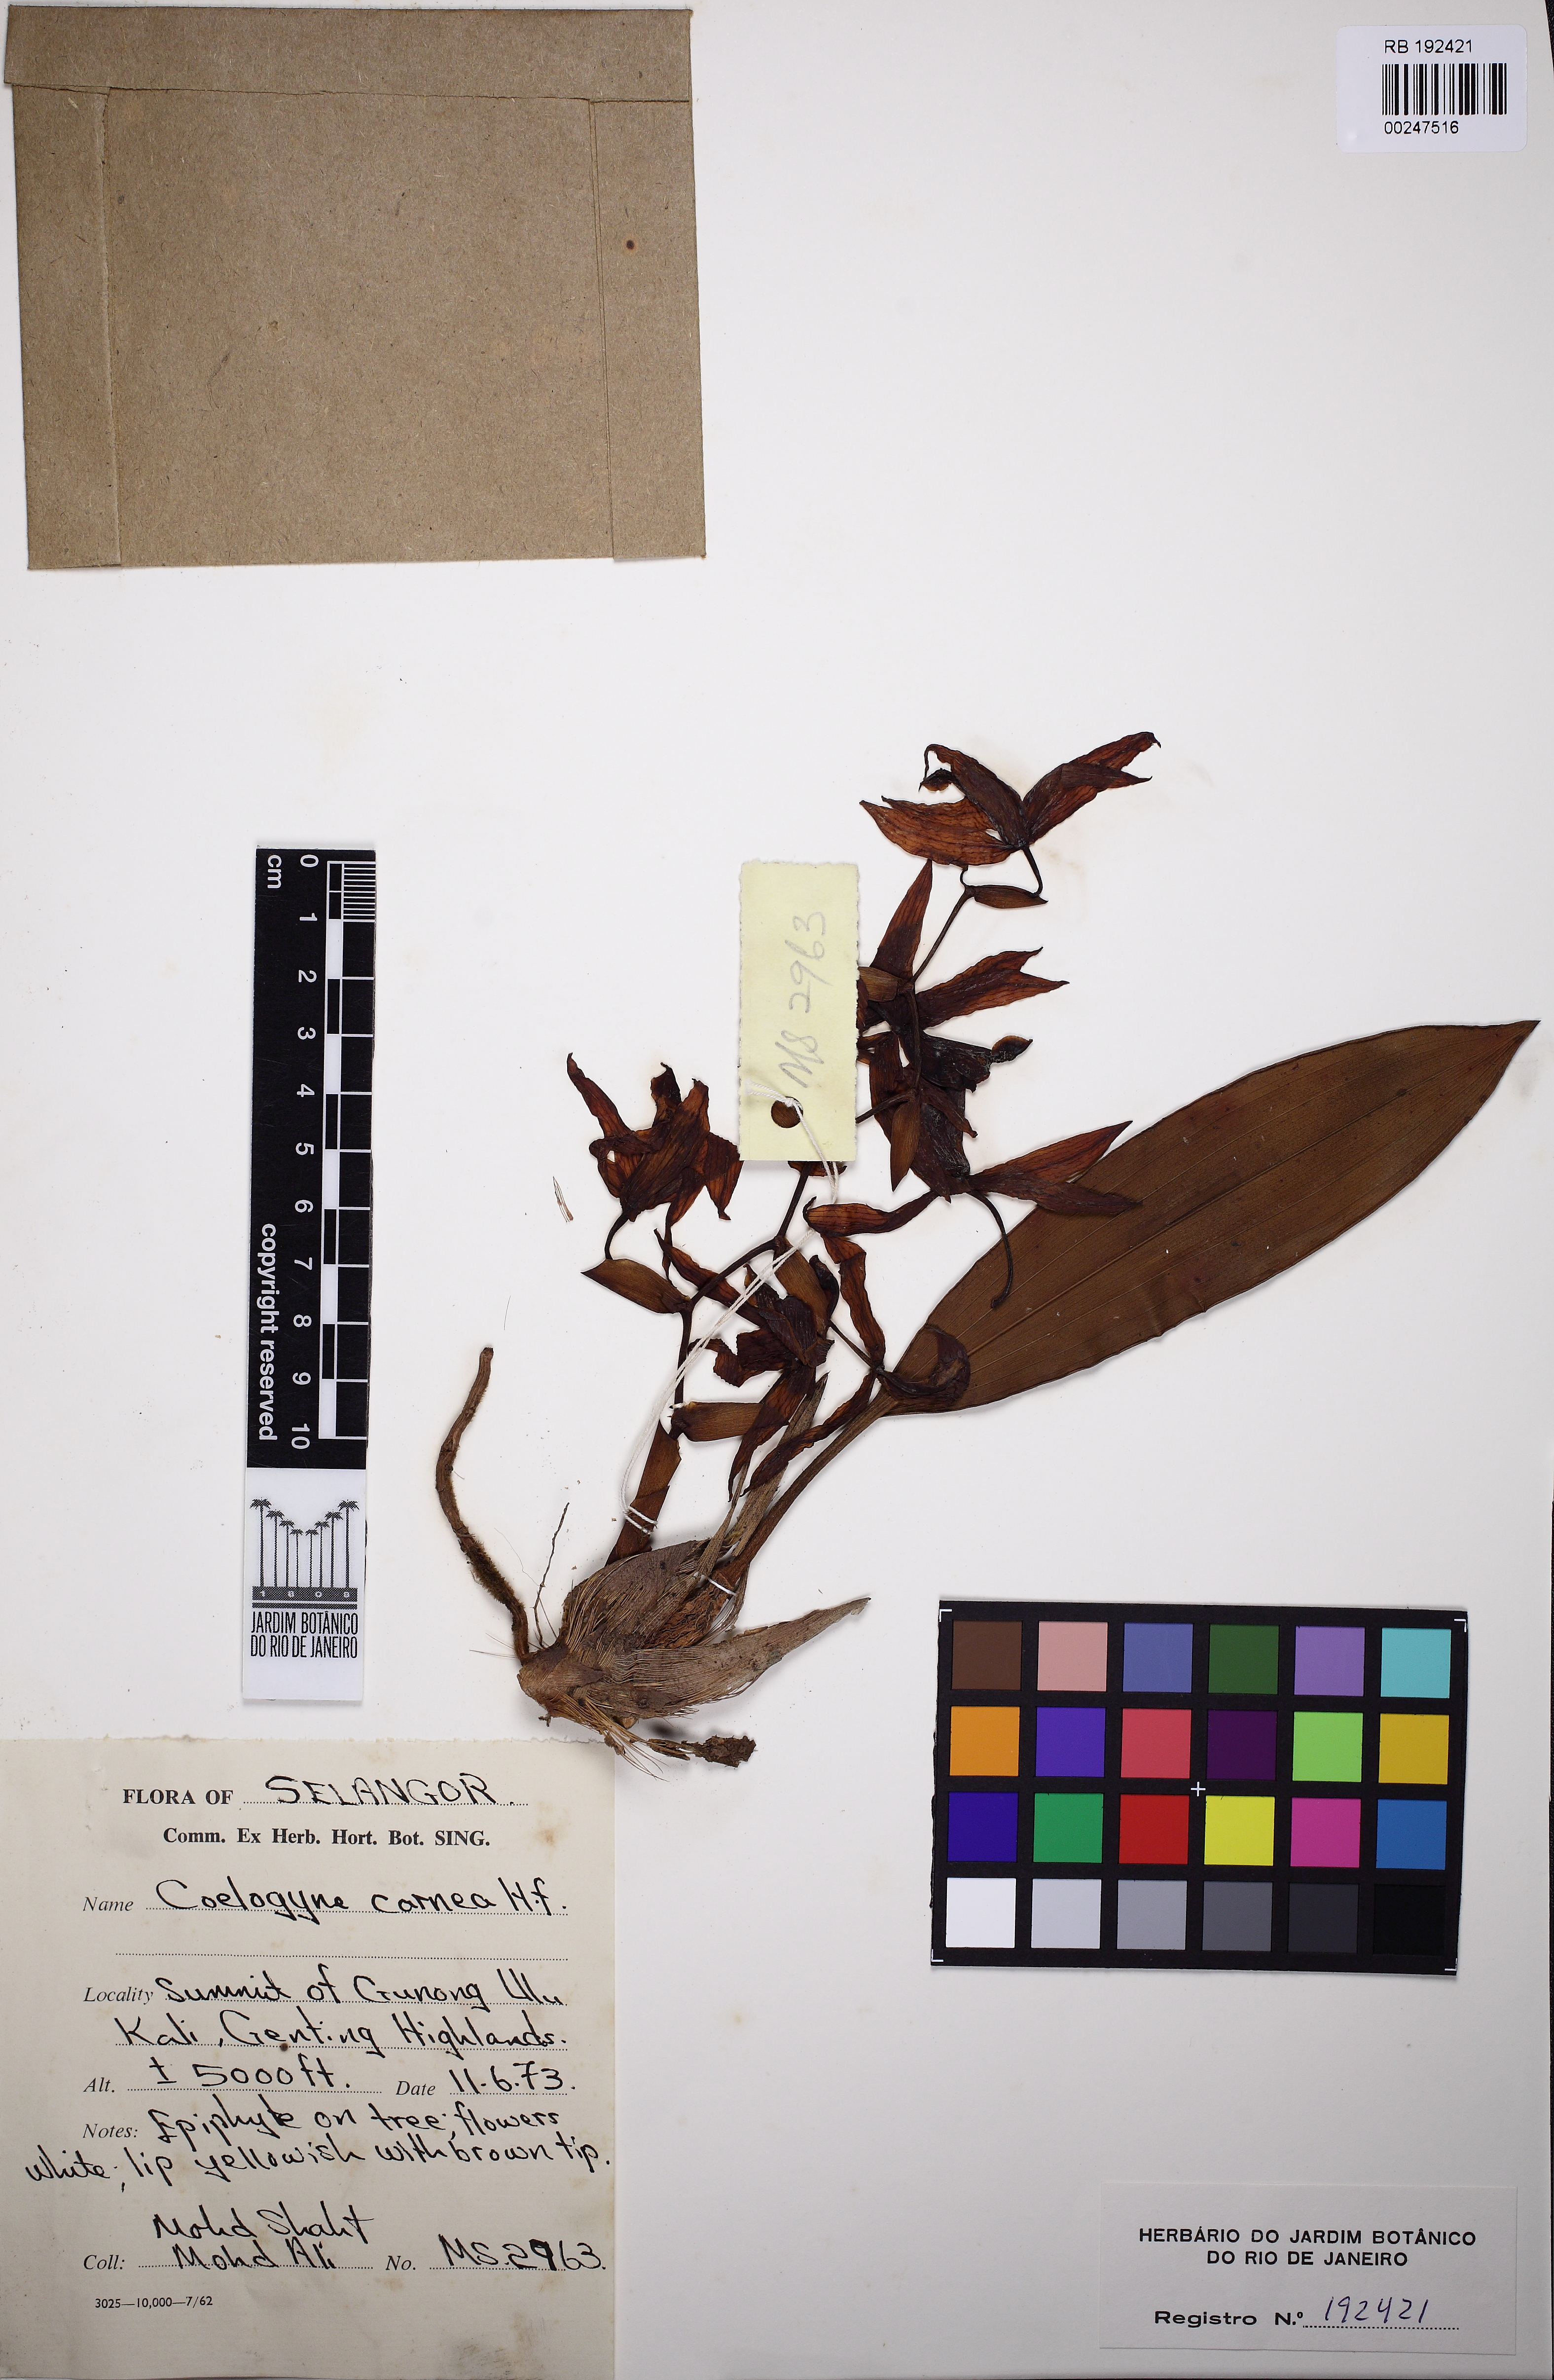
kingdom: Plantae
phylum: Tracheophyta
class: Liliopsida
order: Asparagales
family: Orchidaceae
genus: Coelogyne
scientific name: Coelogyne carnea
